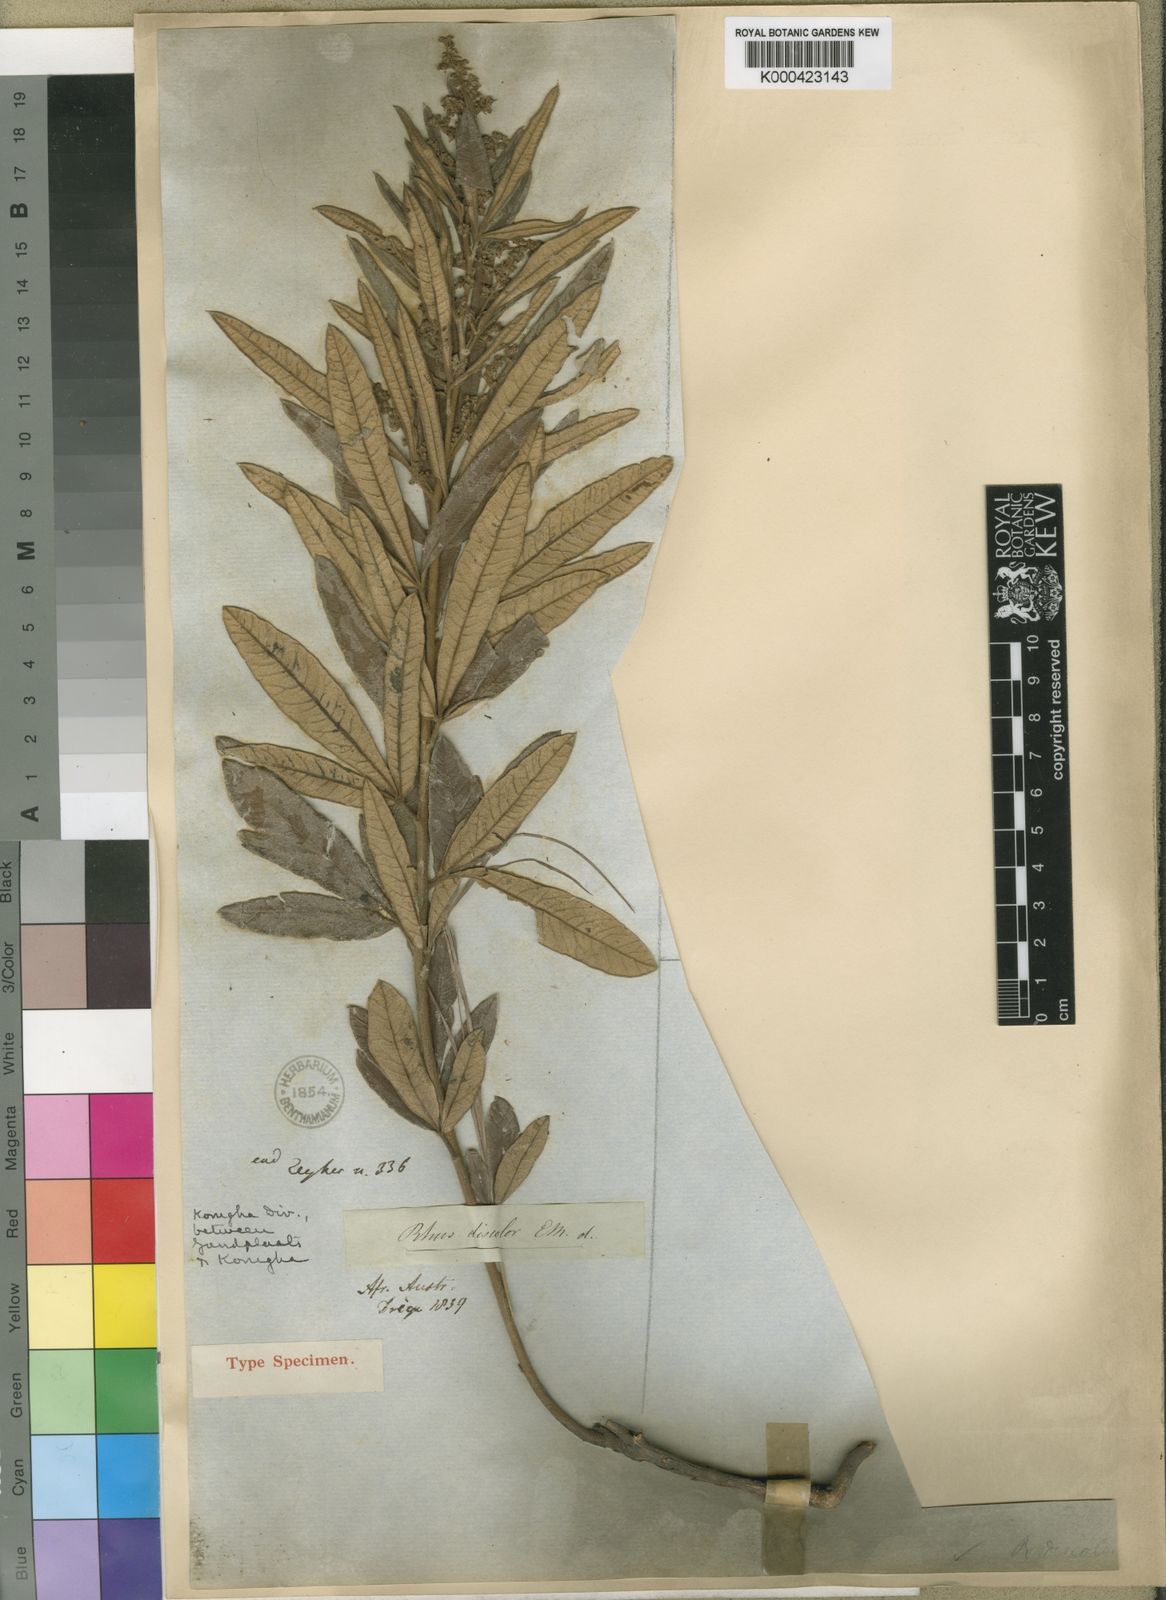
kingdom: Plantae
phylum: Tracheophyta
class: Magnoliopsida
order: Sapindales
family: Anacardiaceae
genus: Rhus
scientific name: Rhus
